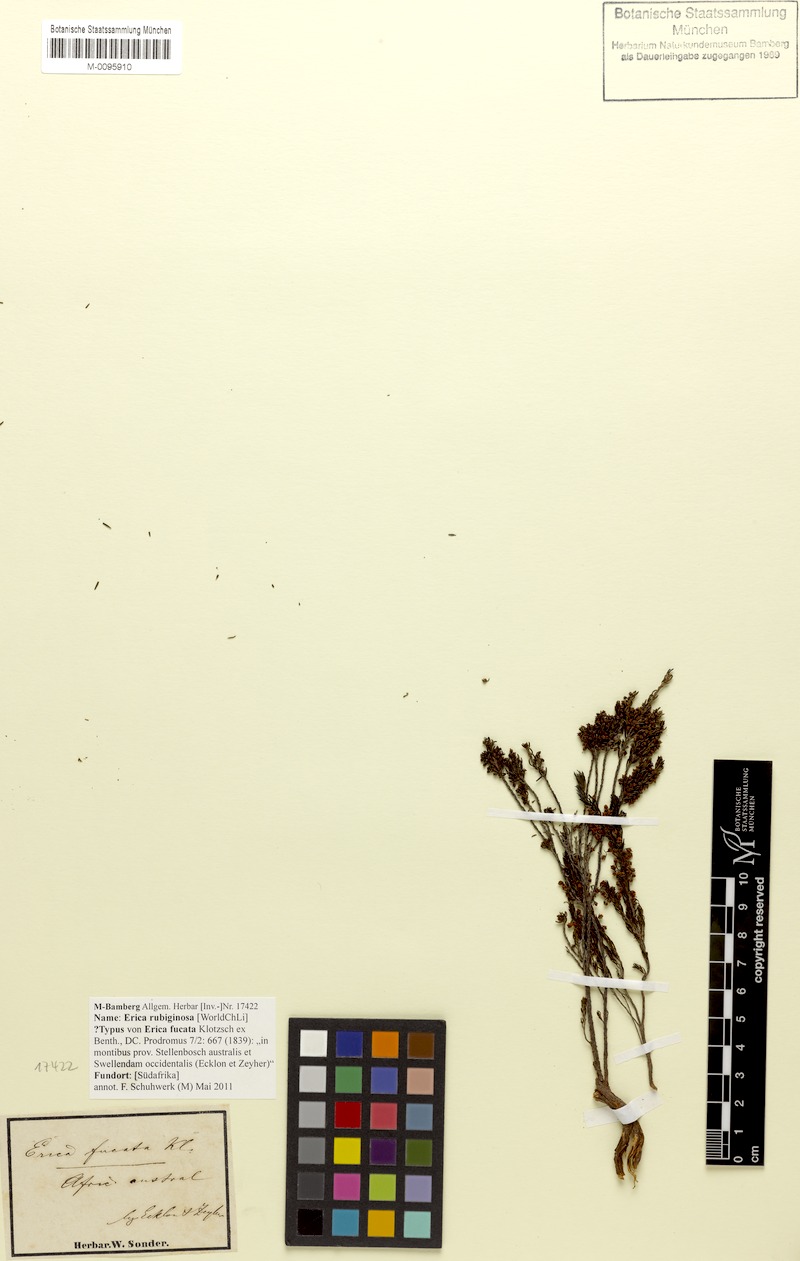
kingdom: Plantae
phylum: Tracheophyta
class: Magnoliopsida
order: Ericales
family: Ericaceae
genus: Erica
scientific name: Erica rubiginosa
